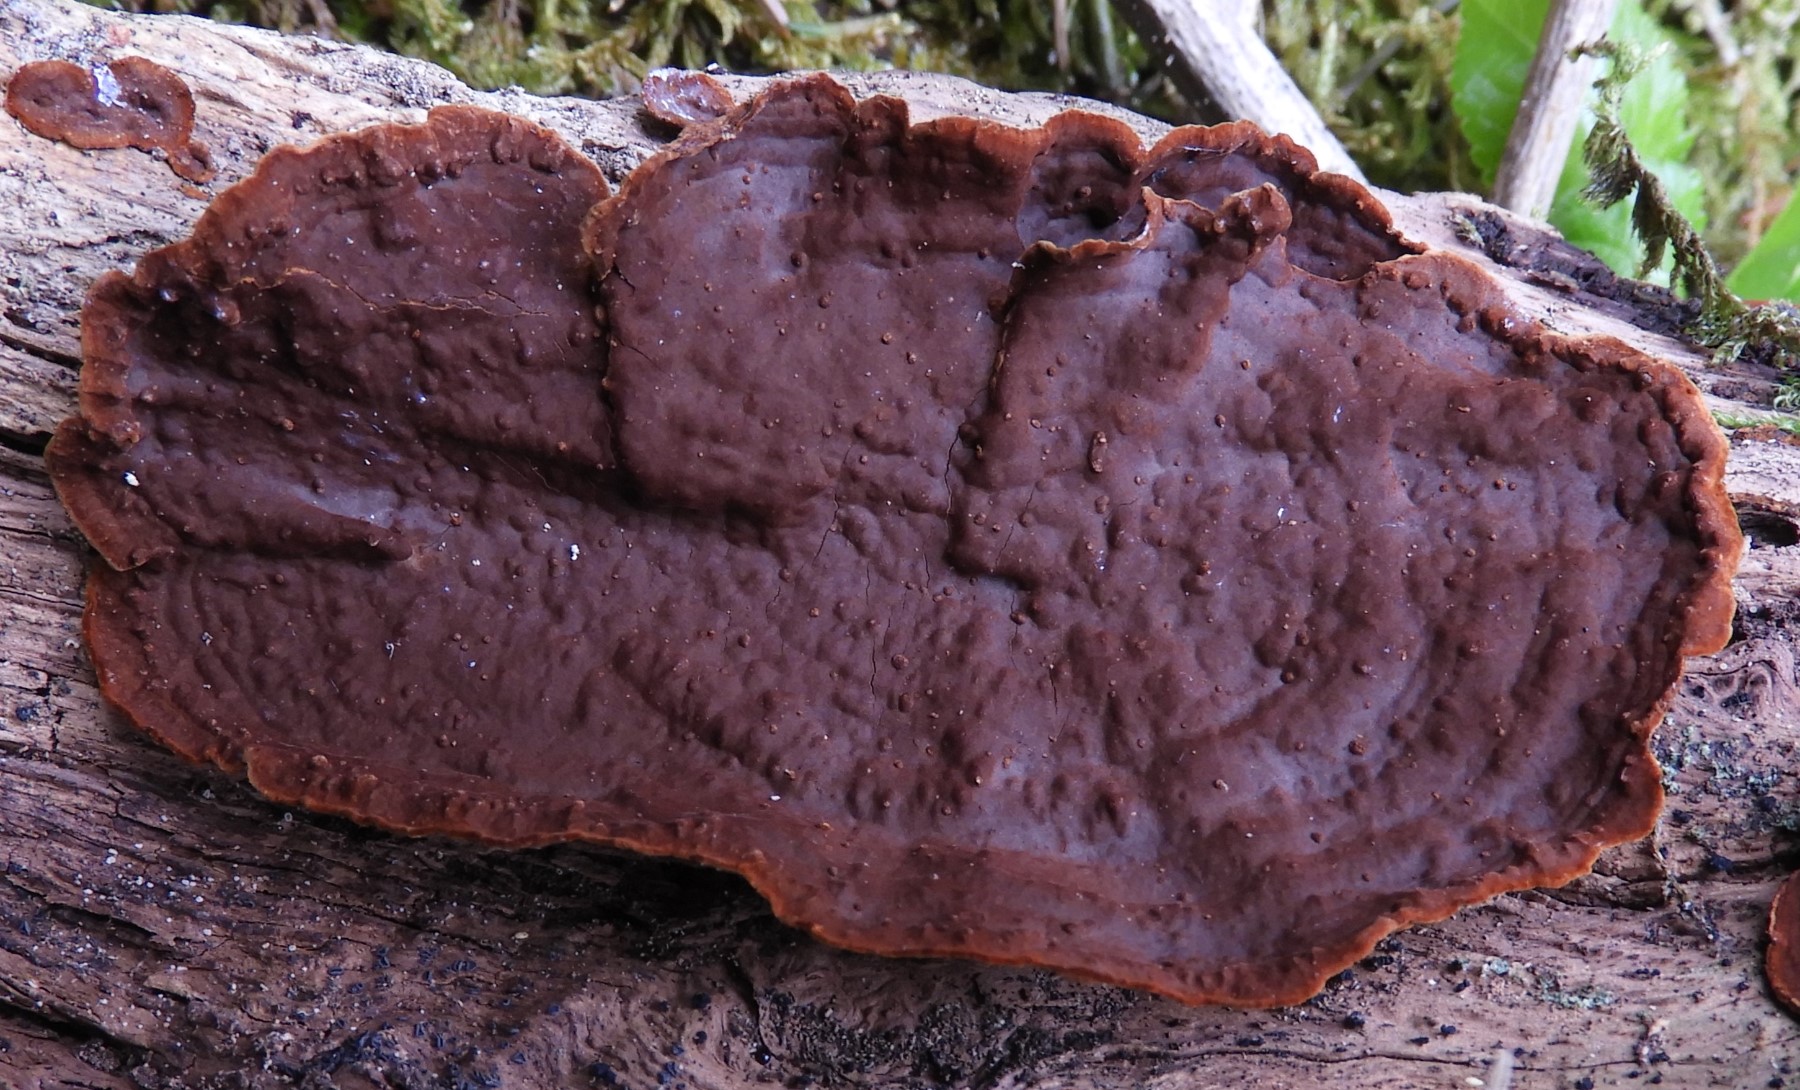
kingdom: Fungi
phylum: Basidiomycota
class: Agaricomycetes
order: Hymenochaetales
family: Hymenochaetaceae
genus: Hymenochaete
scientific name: Hymenochaete rubiginosa
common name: stiv ruslædersvamp
